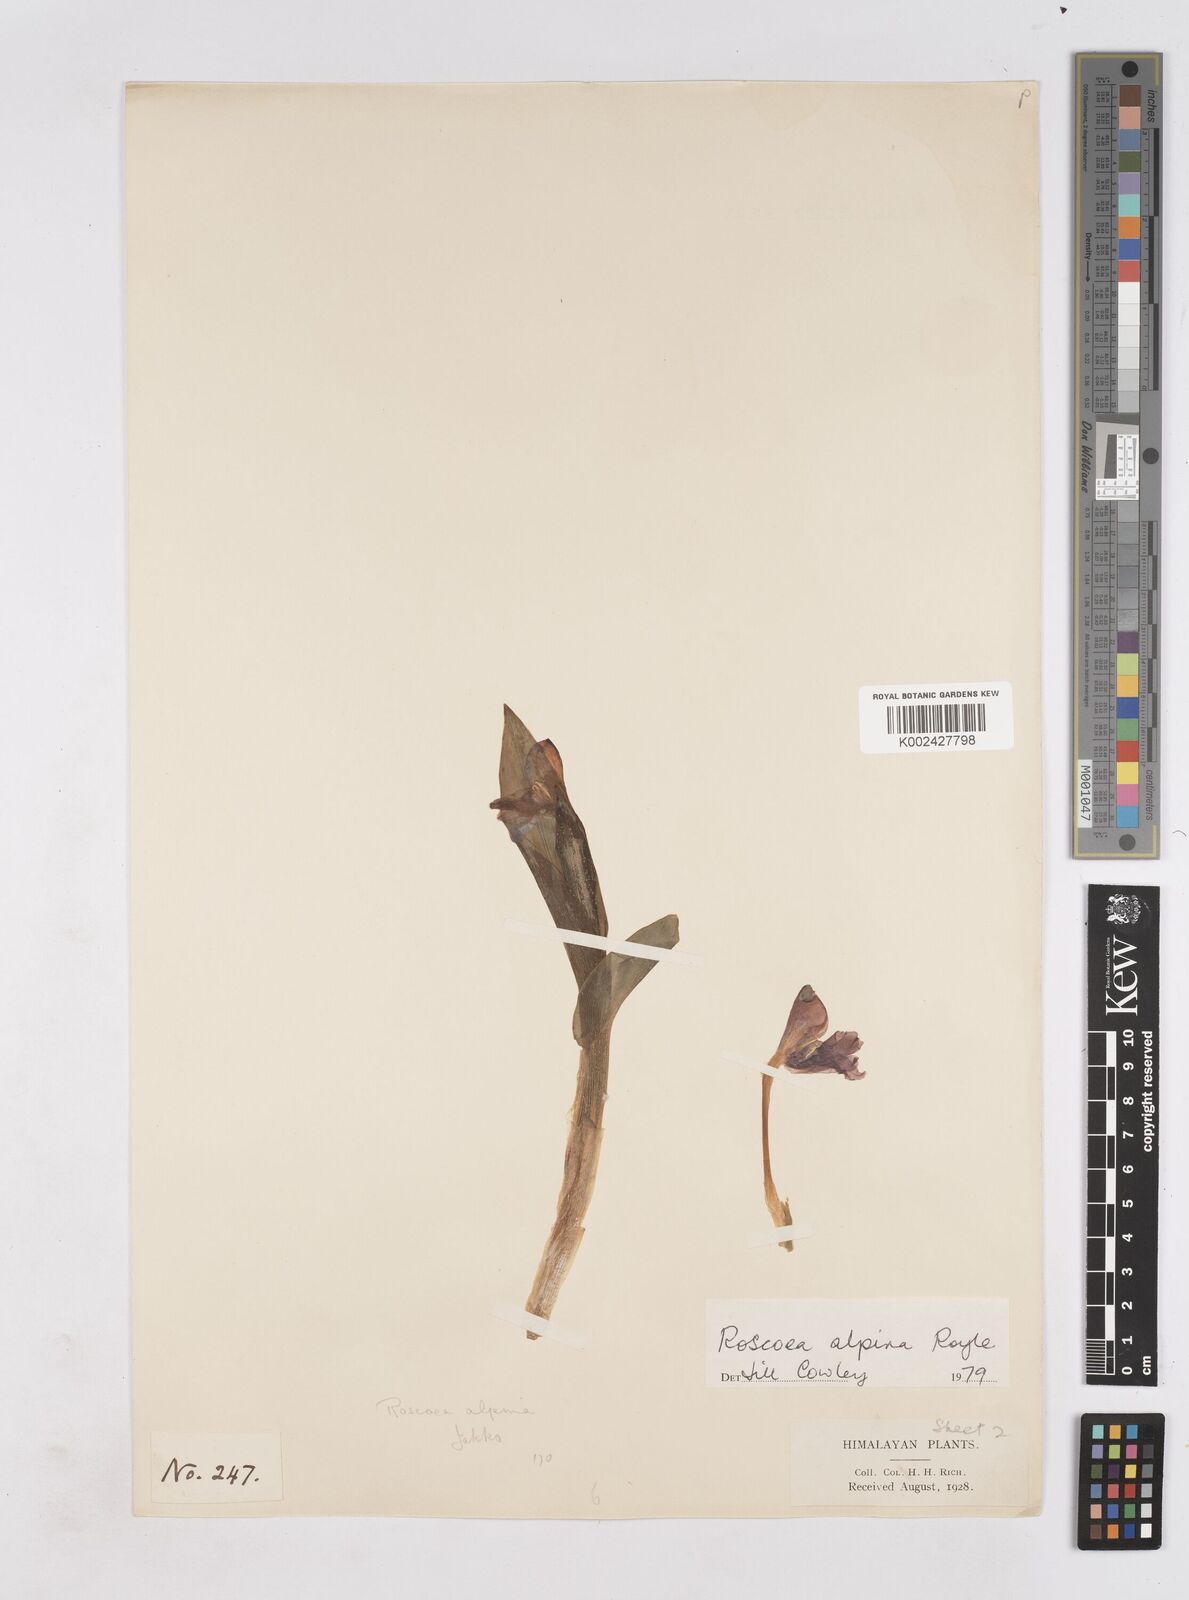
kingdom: Plantae
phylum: Tracheophyta
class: Liliopsida
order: Zingiberales
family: Zingiberaceae
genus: Roscoea
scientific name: Roscoea alpina
